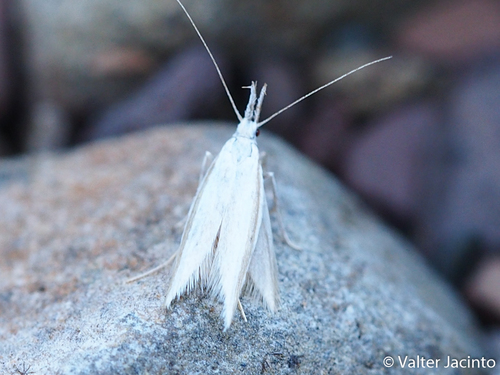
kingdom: Animalia
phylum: Arthropoda
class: Insecta
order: Lepidoptera
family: Oecophoridae
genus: Pleurota
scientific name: Pleurota ericella
